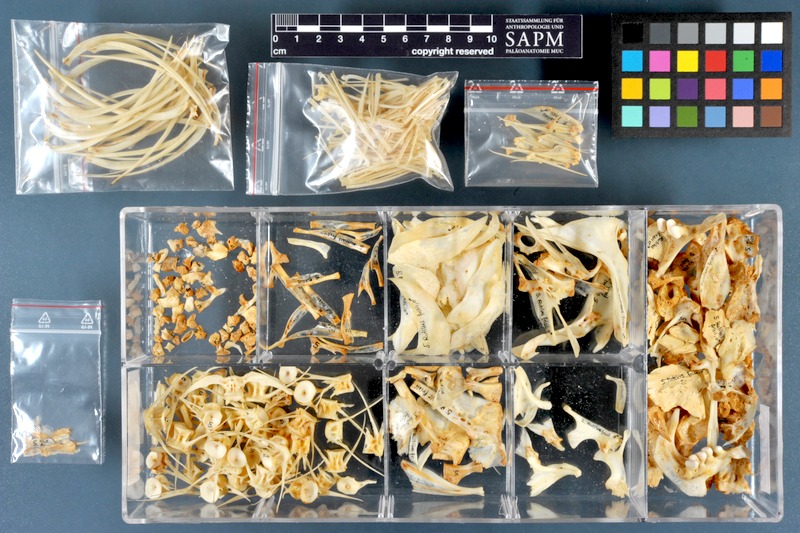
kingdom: Animalia
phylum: Chordata
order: Cypriniformes
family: Cyprinidae
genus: Rutilus
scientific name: Rutilus meidingeri
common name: Perlfisch
